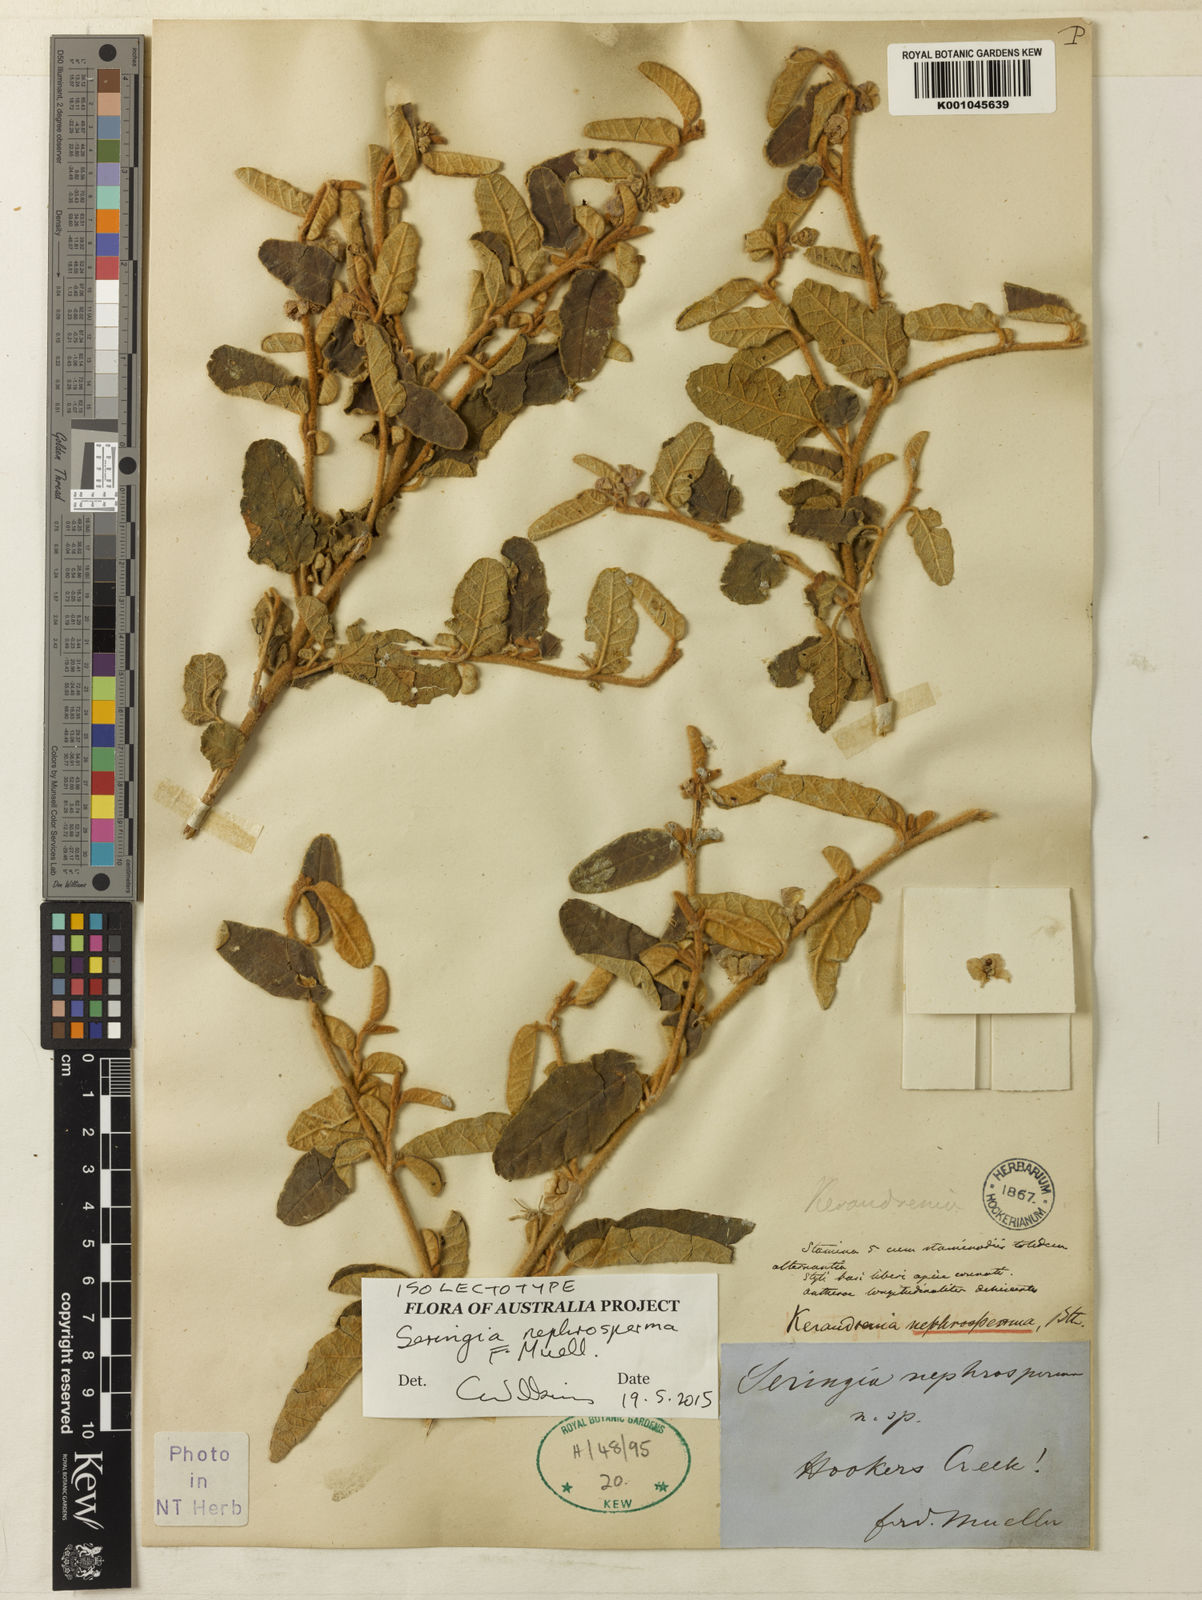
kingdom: Plantae
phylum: Tracheophyta
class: Magnoliopsida
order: Malvales
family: Malvaceae
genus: Seringia
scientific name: Seringia nephrosperma
